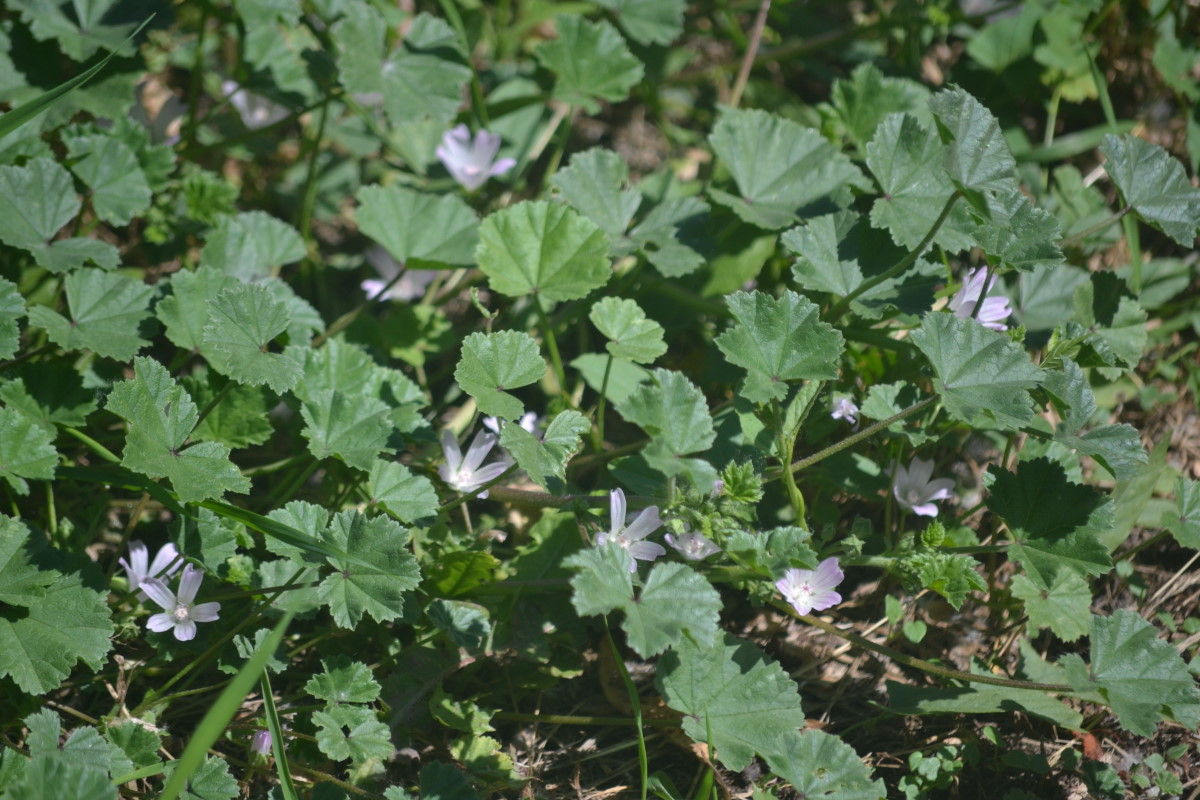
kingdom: Plantae
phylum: Tracheophyta
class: Magnoliopsida
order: Malvales
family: Malvaceae
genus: Malva
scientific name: Malva neglecta
